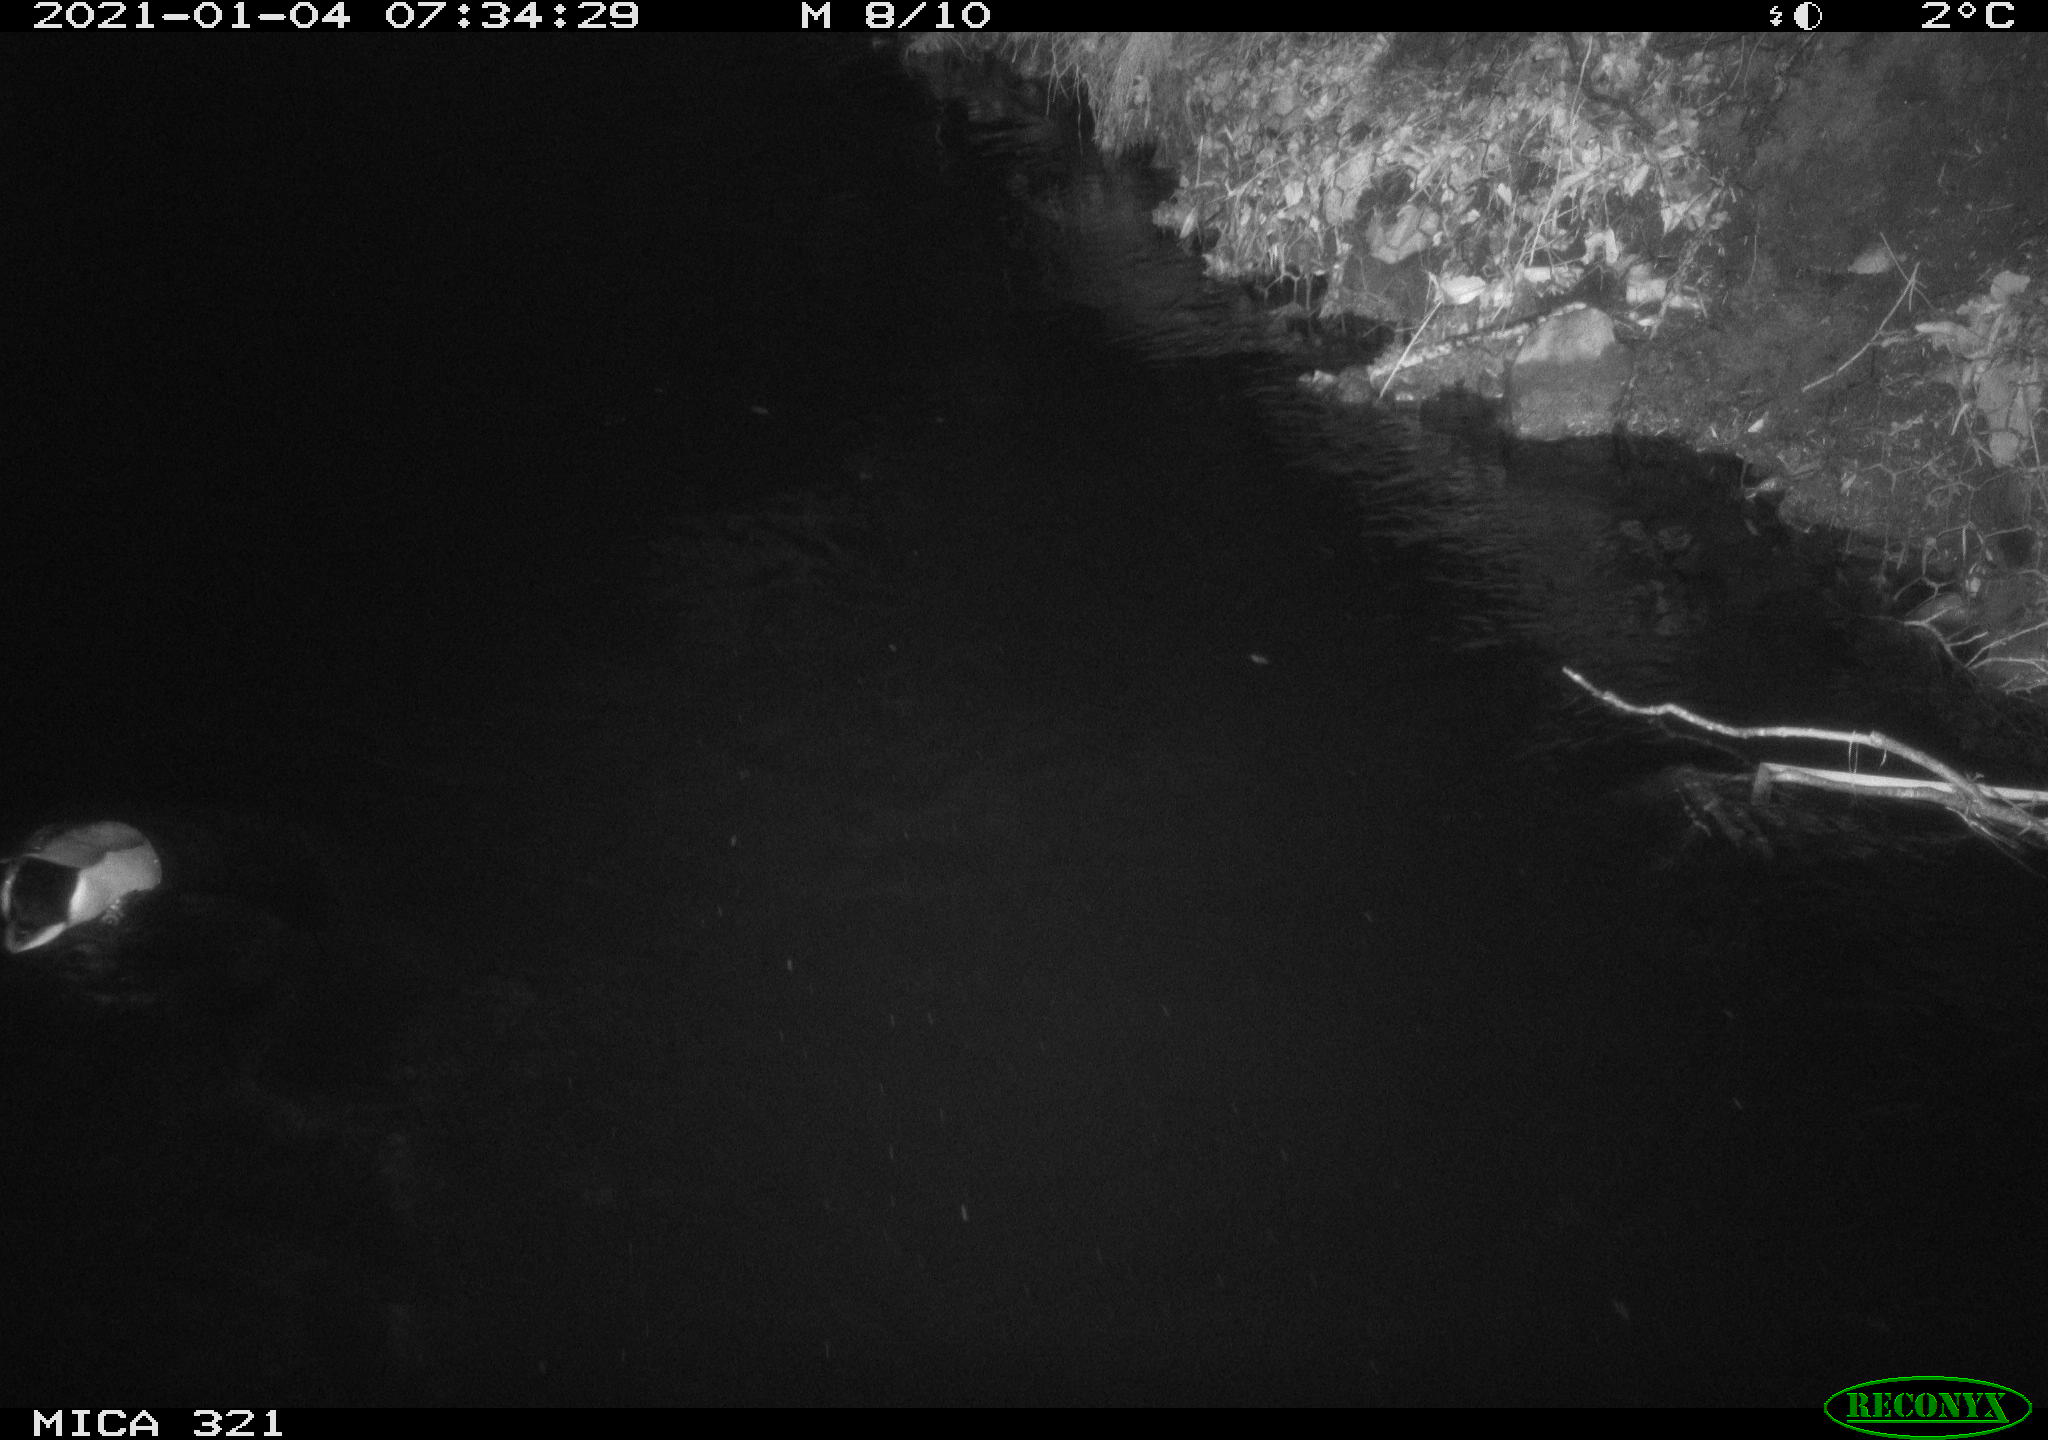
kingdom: Animalia
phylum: Chordata
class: Aves
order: Anseriformes
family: Anatidae
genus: Anas
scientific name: Anas platyrhynchos
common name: Mallard
